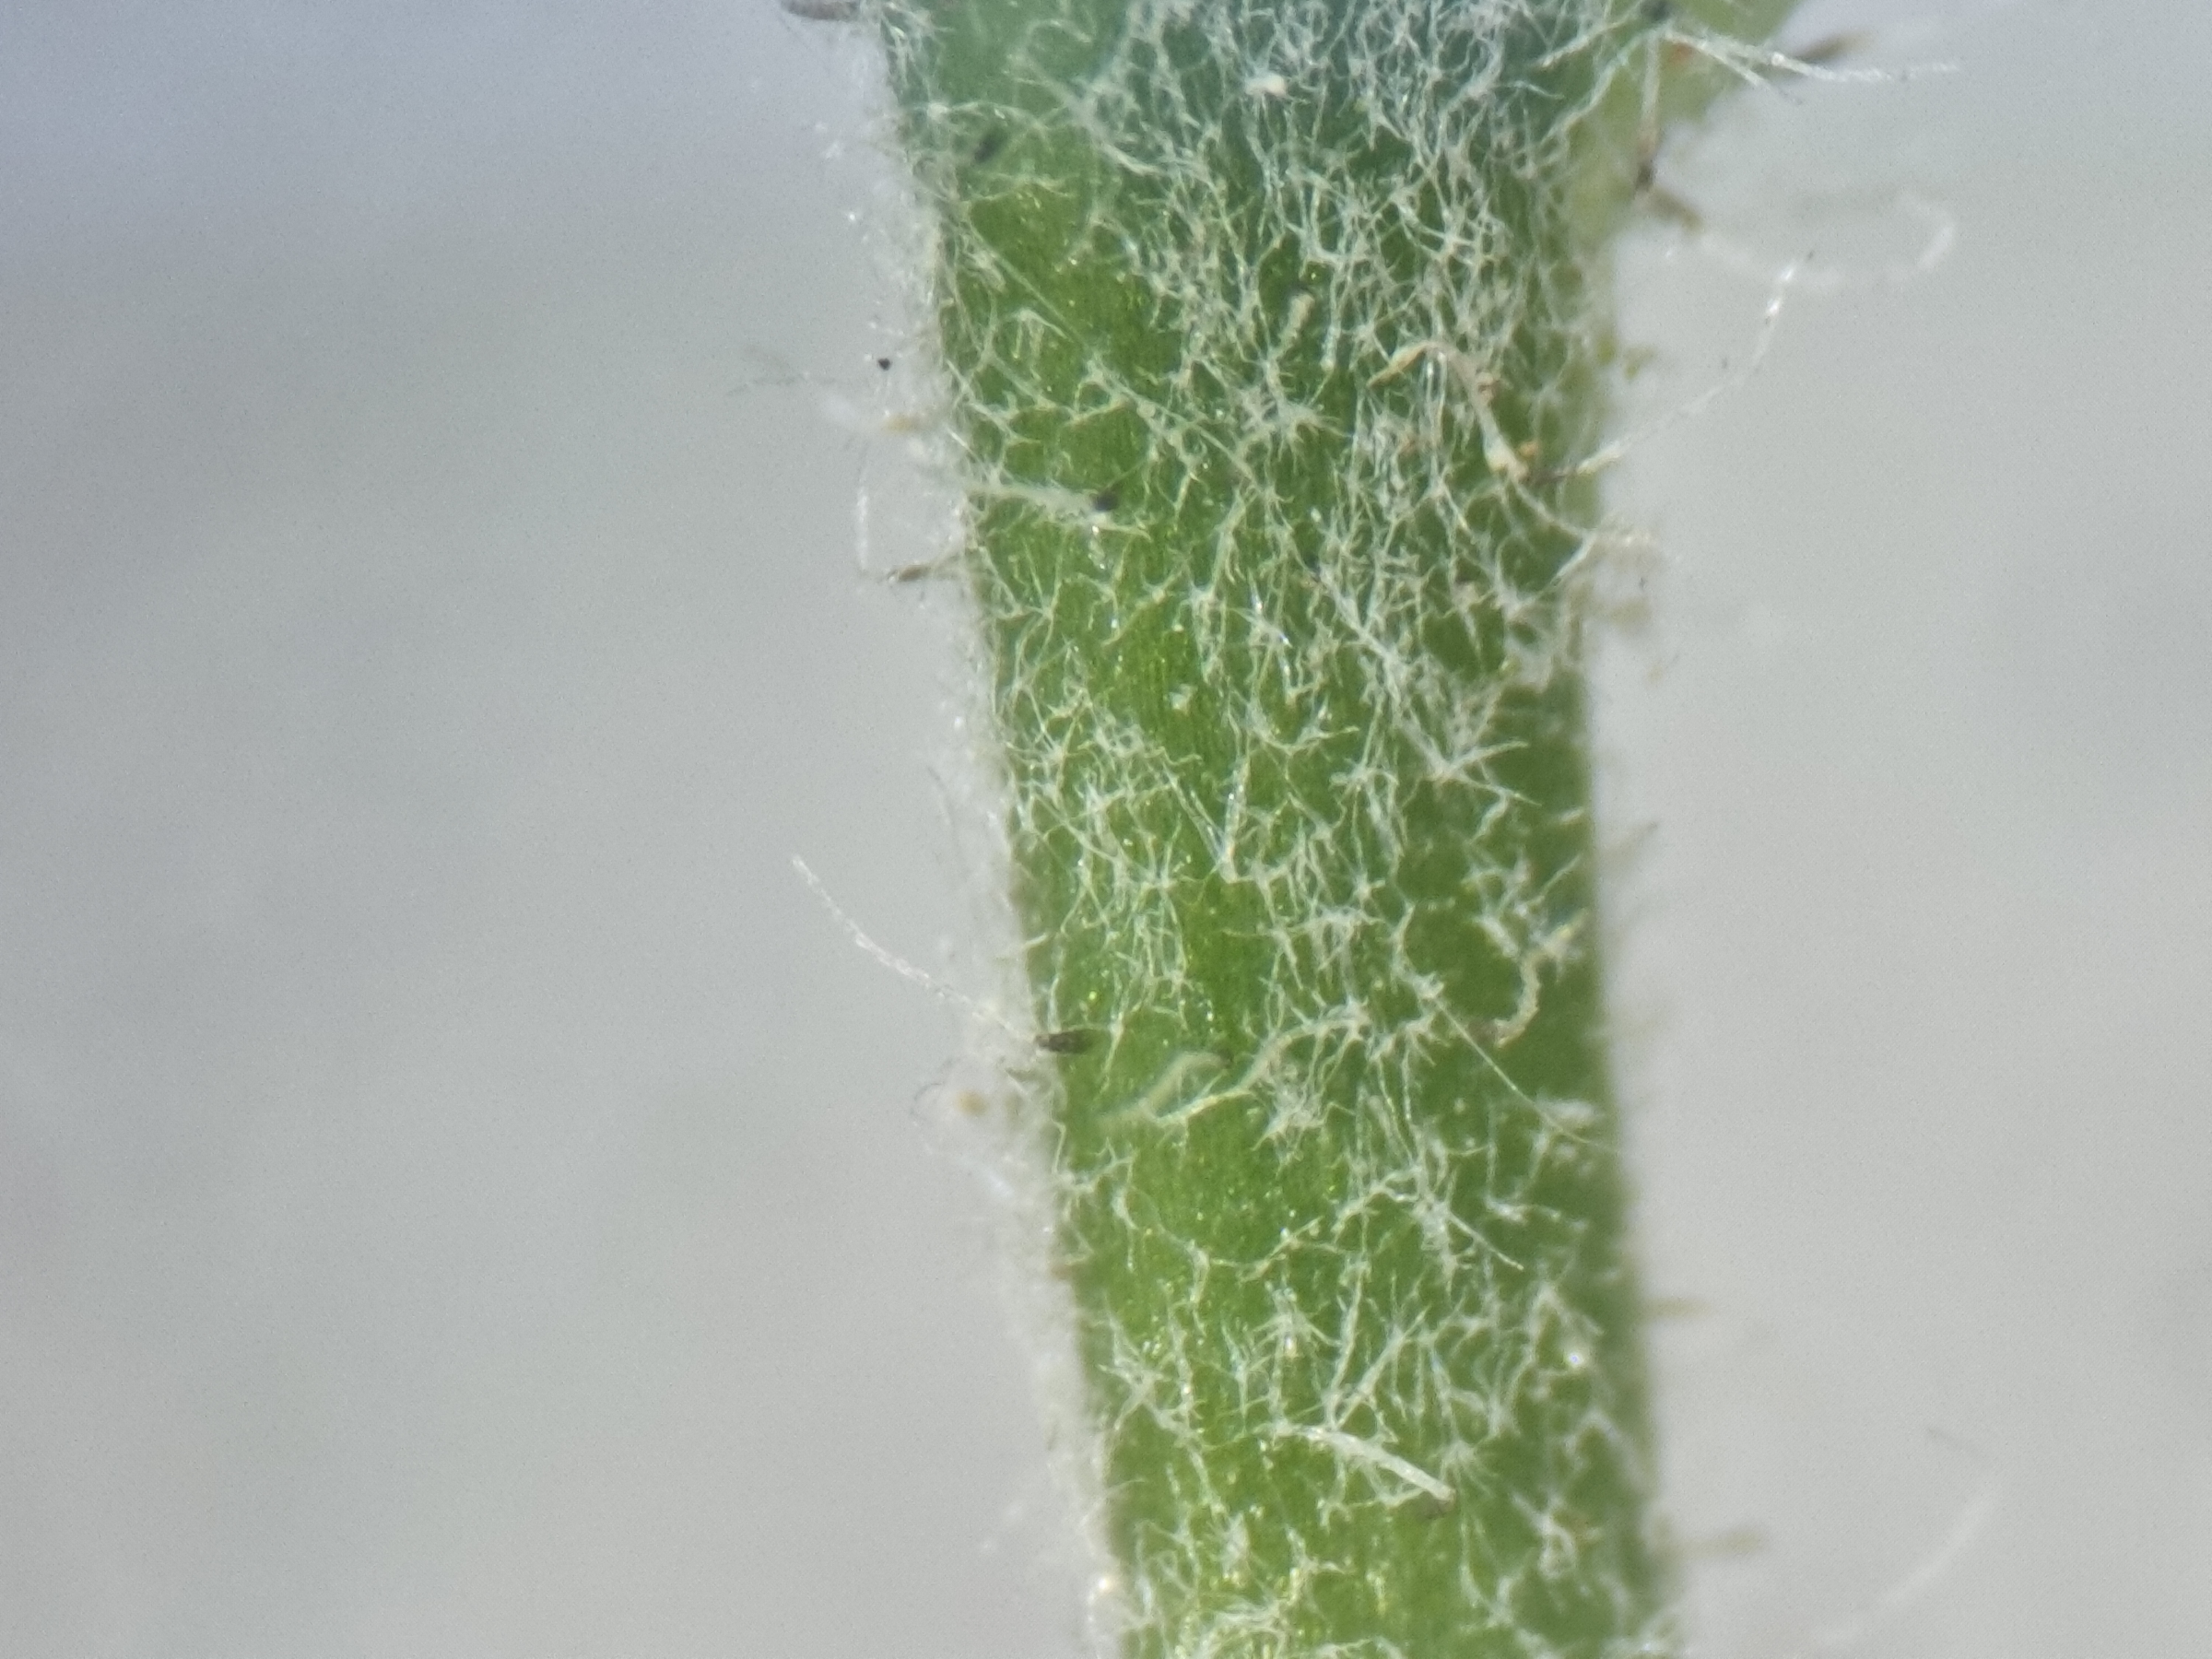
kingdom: Plantae
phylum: Tracheophyta
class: Magnoliopsida
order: Asterales
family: Asteraceae
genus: Hieracium
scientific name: Hieracium lachenalii
